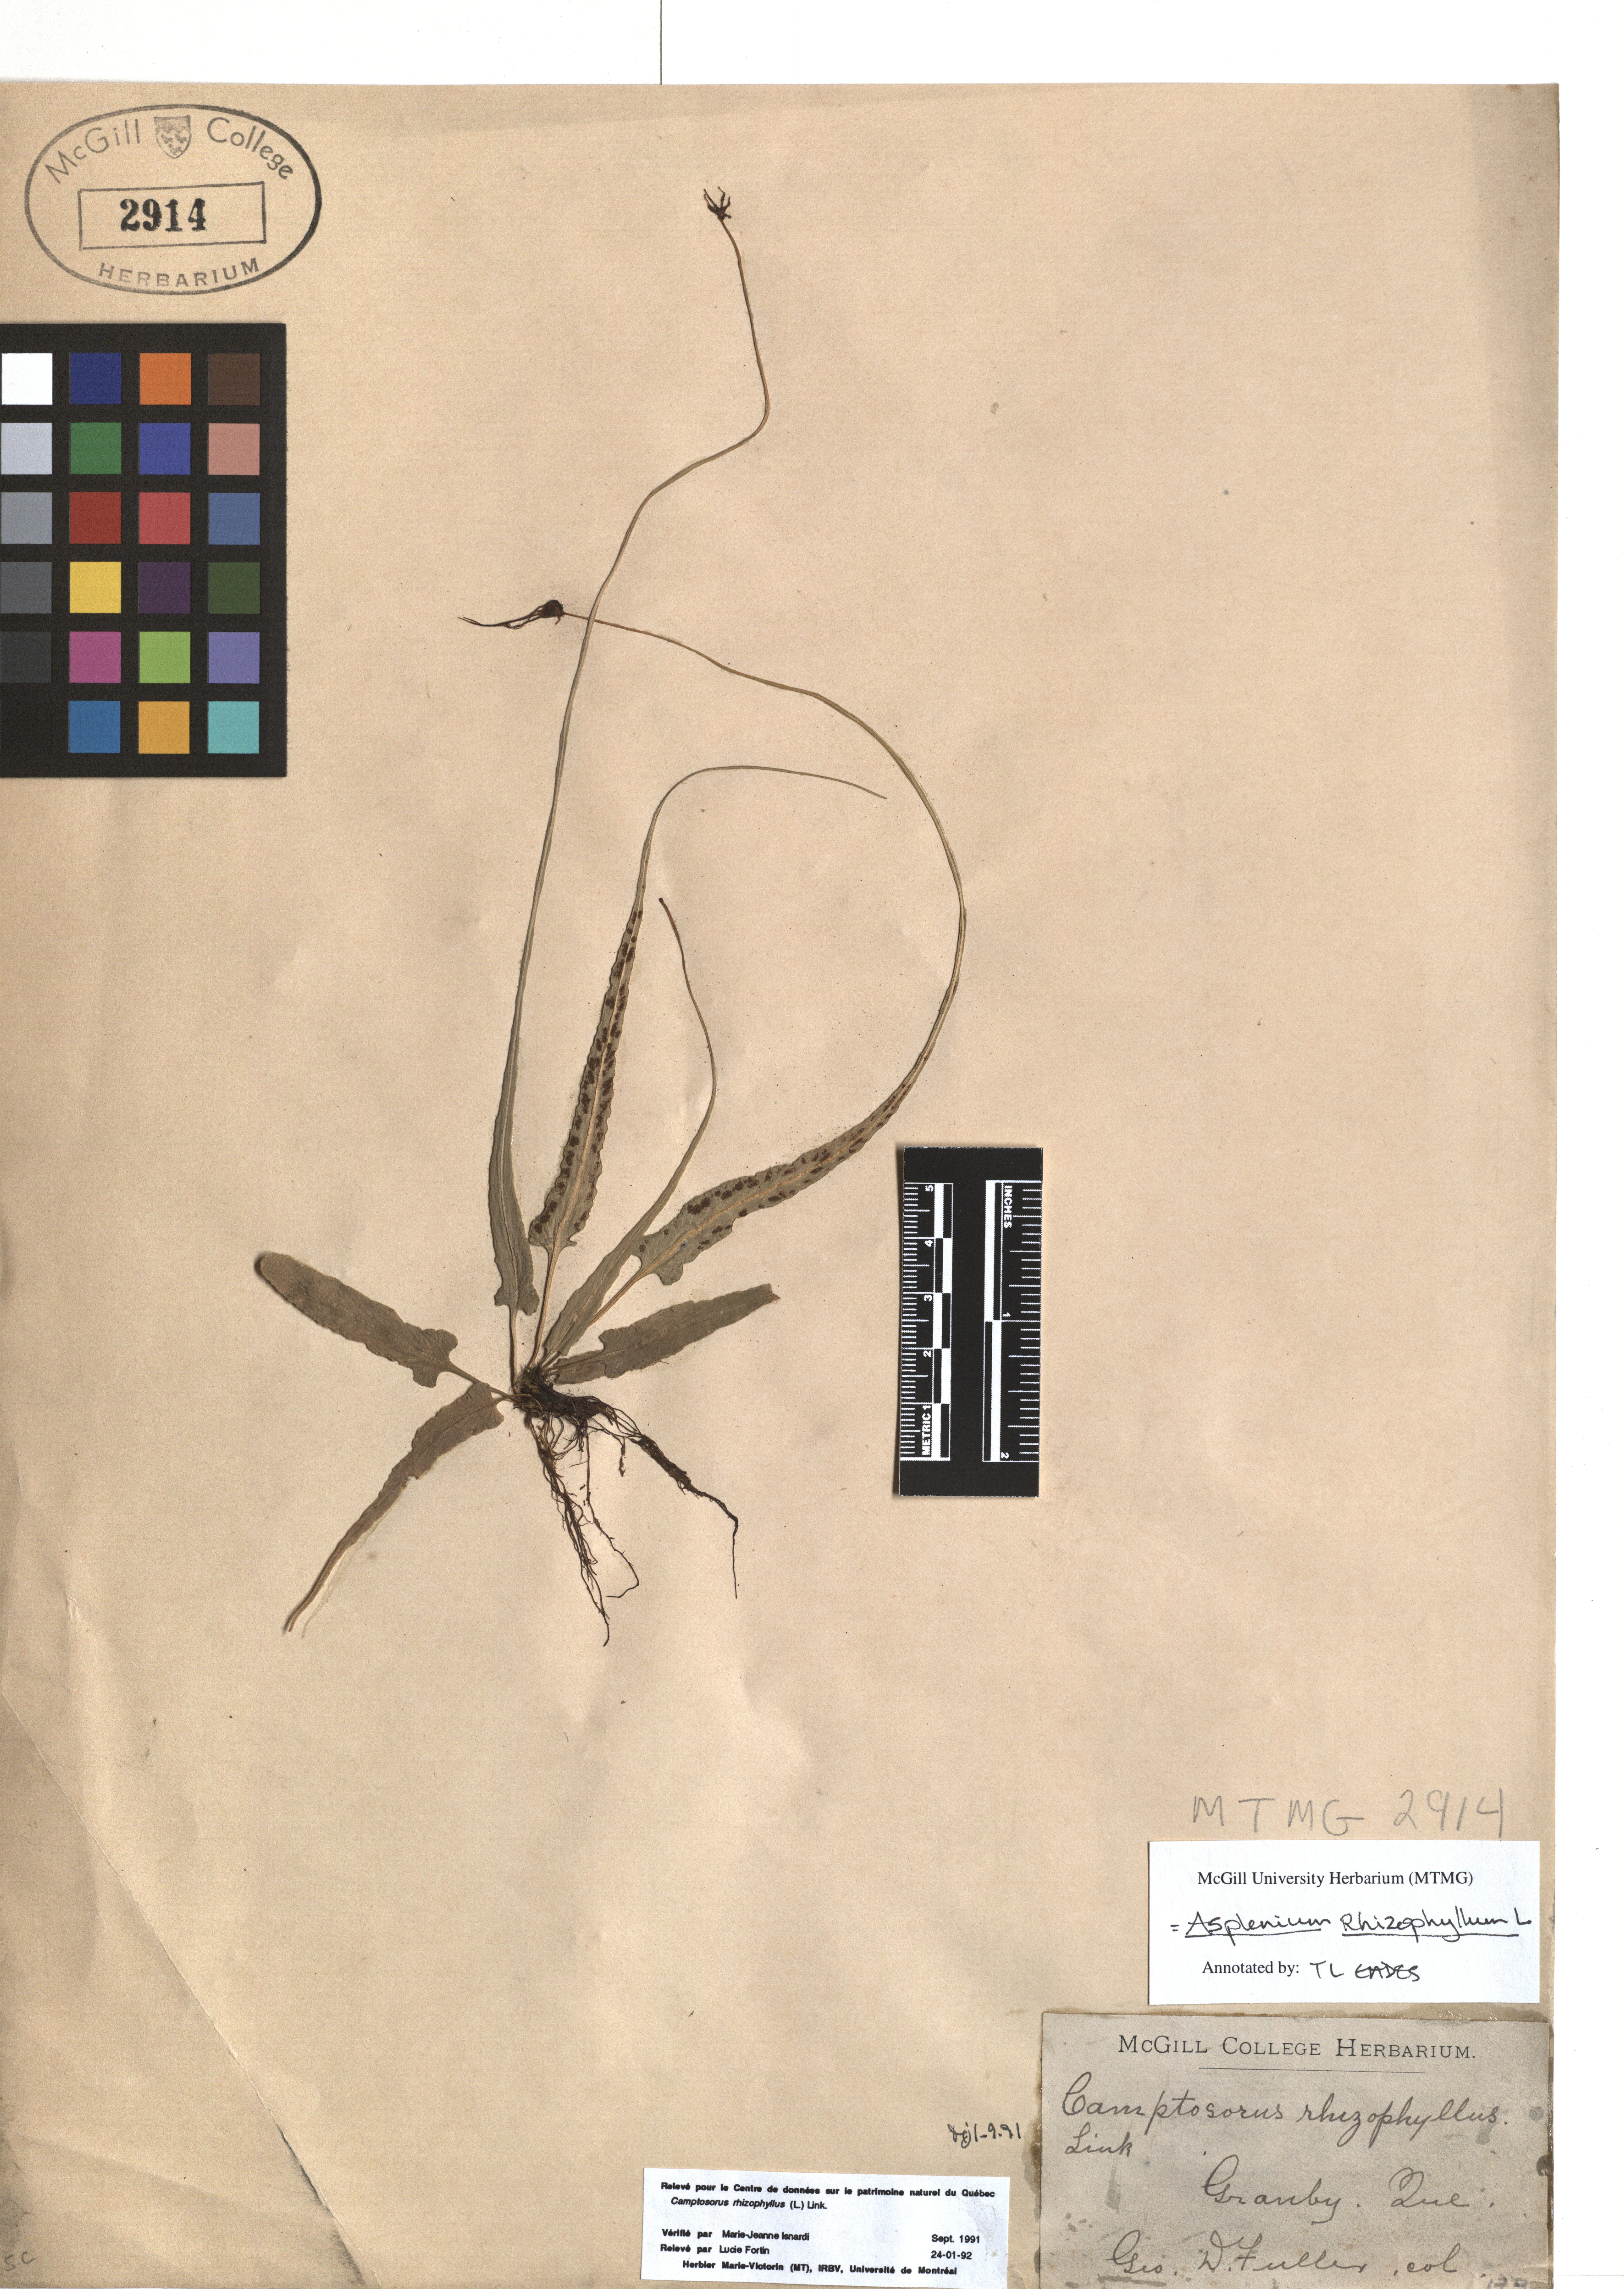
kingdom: Plantae
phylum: Tracheophyta
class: Polypodiopsida
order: Polypodiales
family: Aspleniaceae
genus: Asplenium
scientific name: Asplenium radicans
